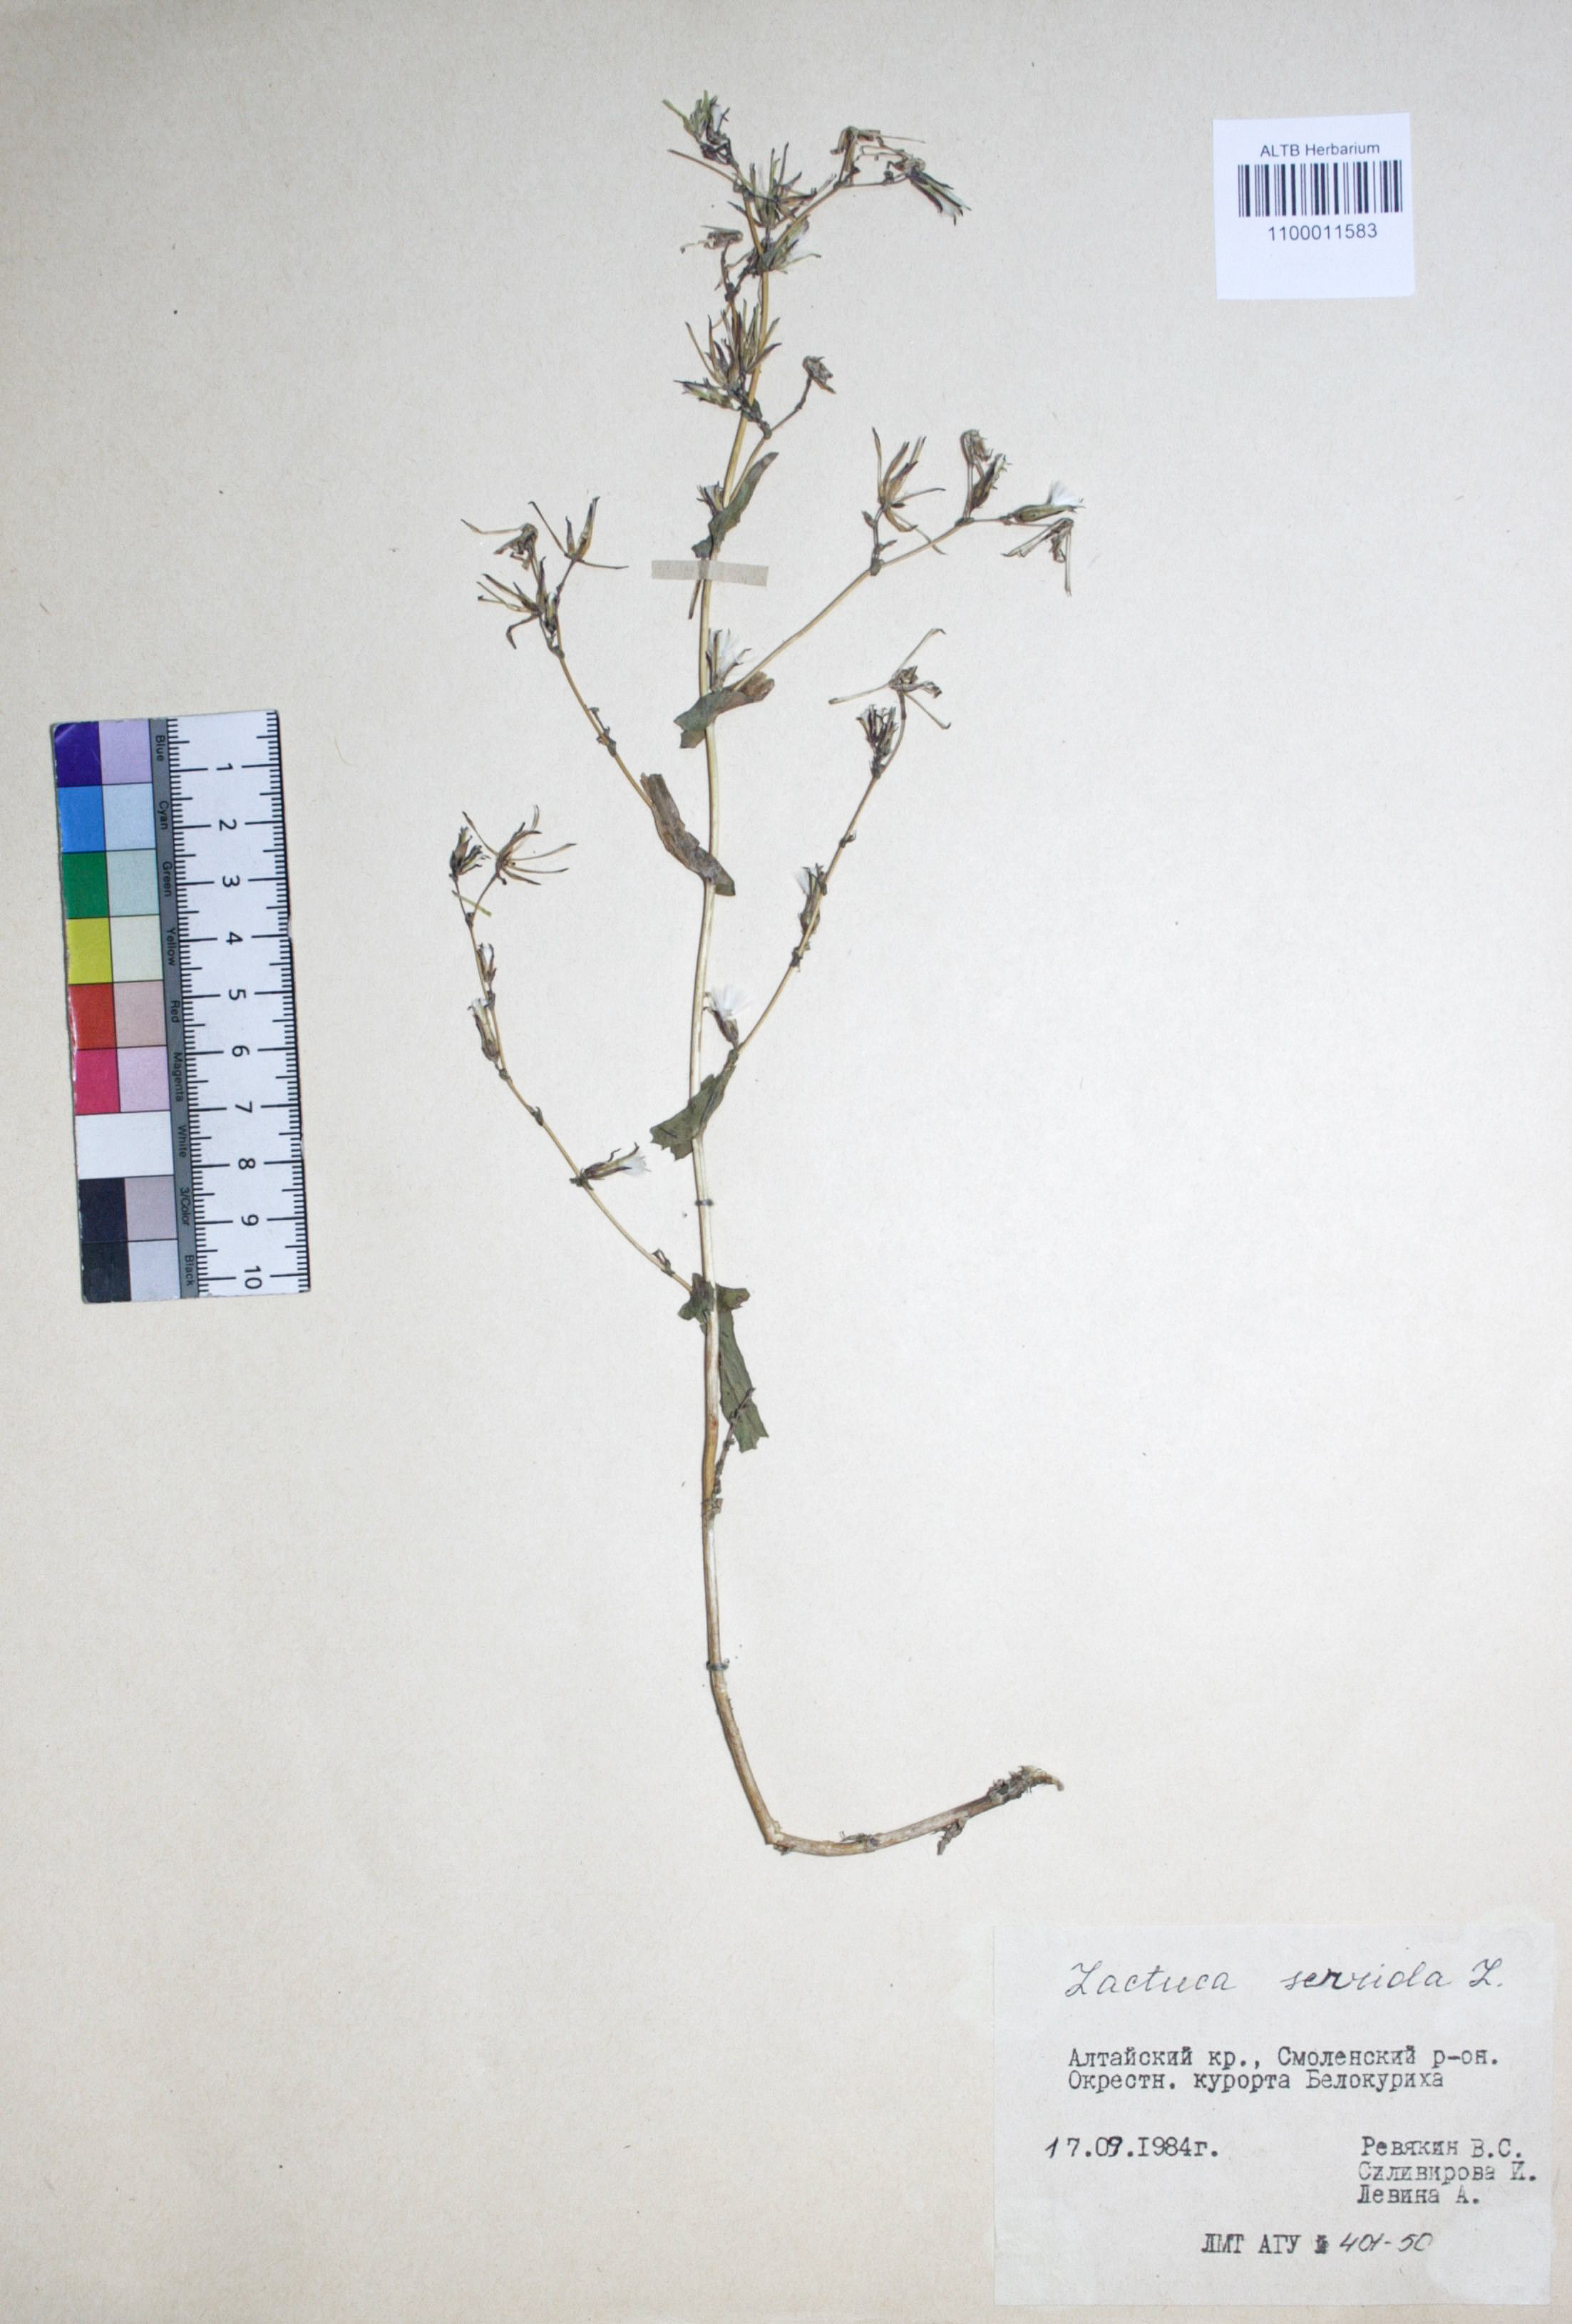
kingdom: Plantae
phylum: Tracheophyta
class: Magnoliopsida
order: Asterales
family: Asteraceae
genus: Lactuca
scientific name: Lactuca serriola
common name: Prickly lettuce
